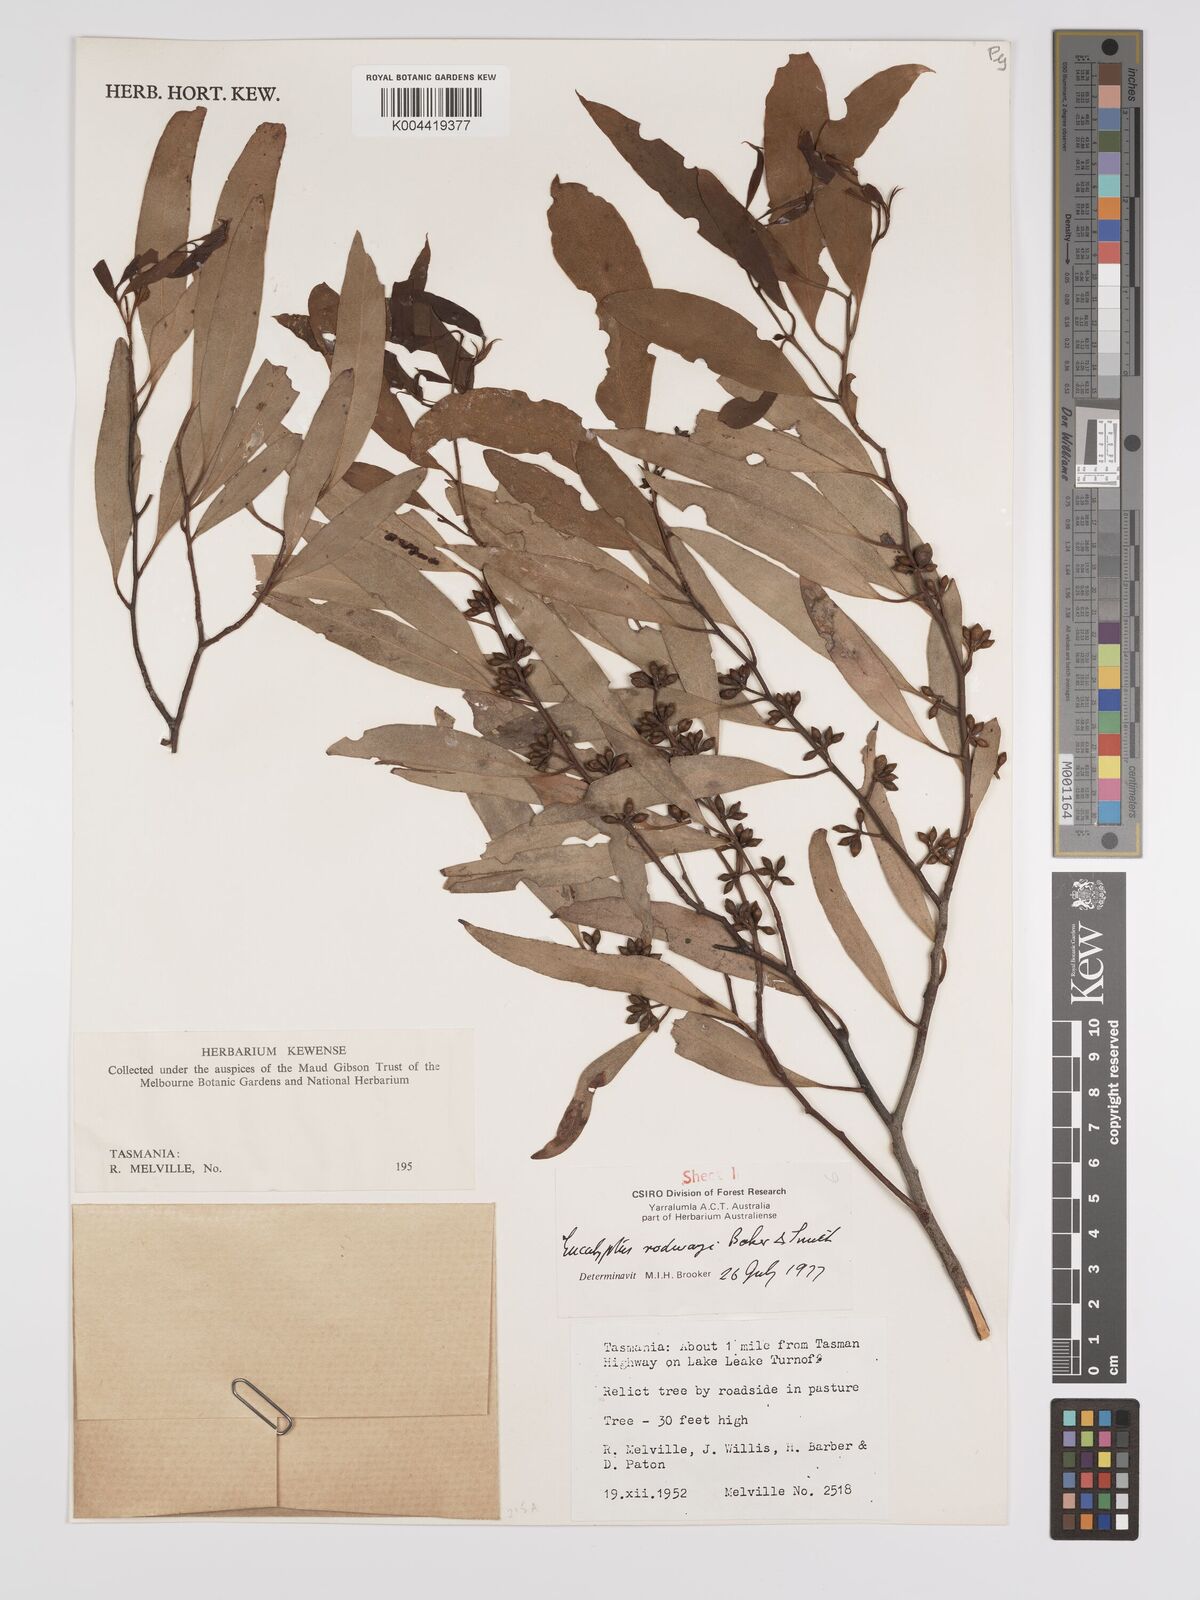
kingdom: Plantae
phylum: Tracheophyta
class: Magnoliopsida
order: Myrtales
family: Myrtaceae
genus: Eucalyptus
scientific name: Eucalyptus rodwayi
